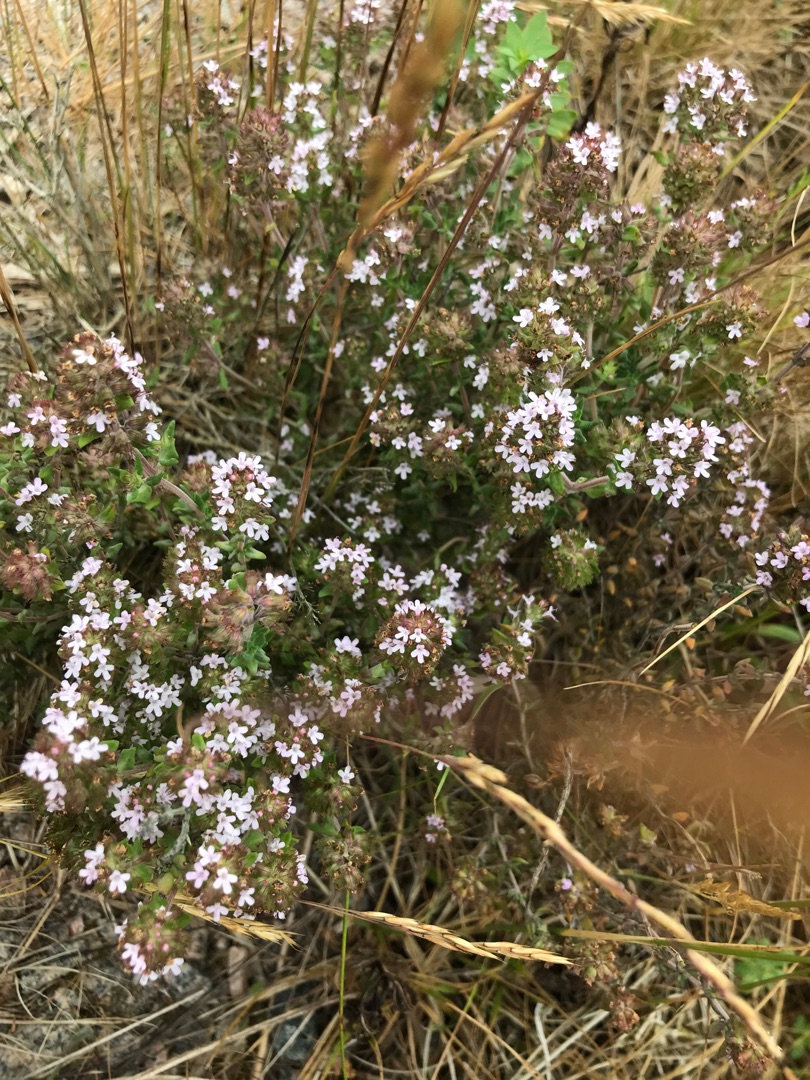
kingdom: Plantae
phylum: Tracheophyta
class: Magnoliopsida
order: Lamiales
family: Lamiaceae
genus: Thymus
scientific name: Thymus pulegioides
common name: Bredbladet timian
